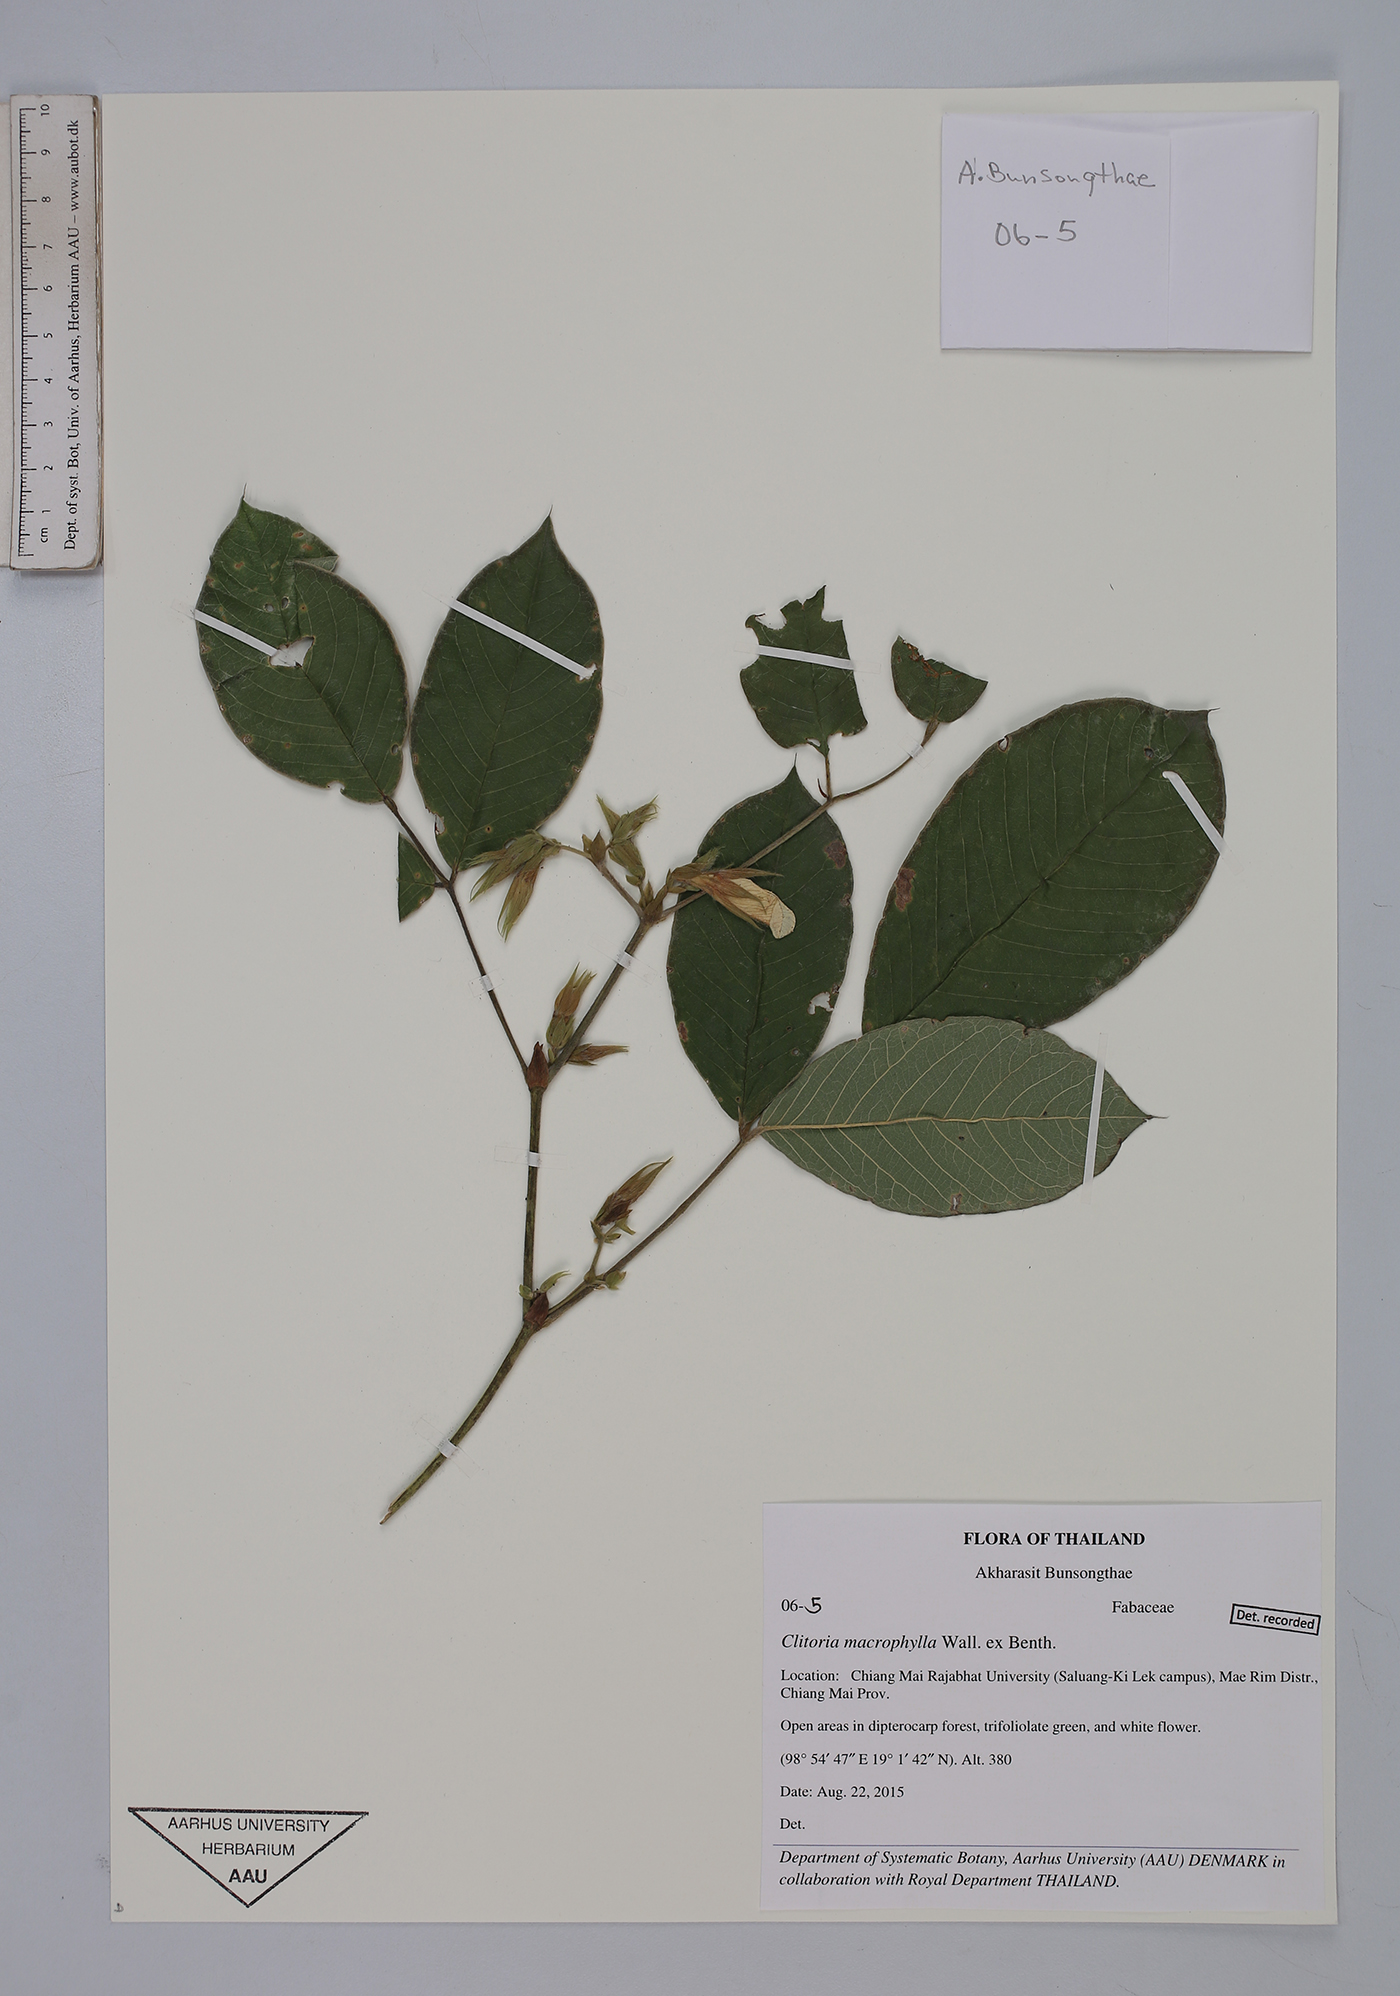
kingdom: Plantae
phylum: Tracheophyta
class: Magnoliopsida
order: Fabales
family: Fabaceae
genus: Clitoria
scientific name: Clitoria macrophylla
